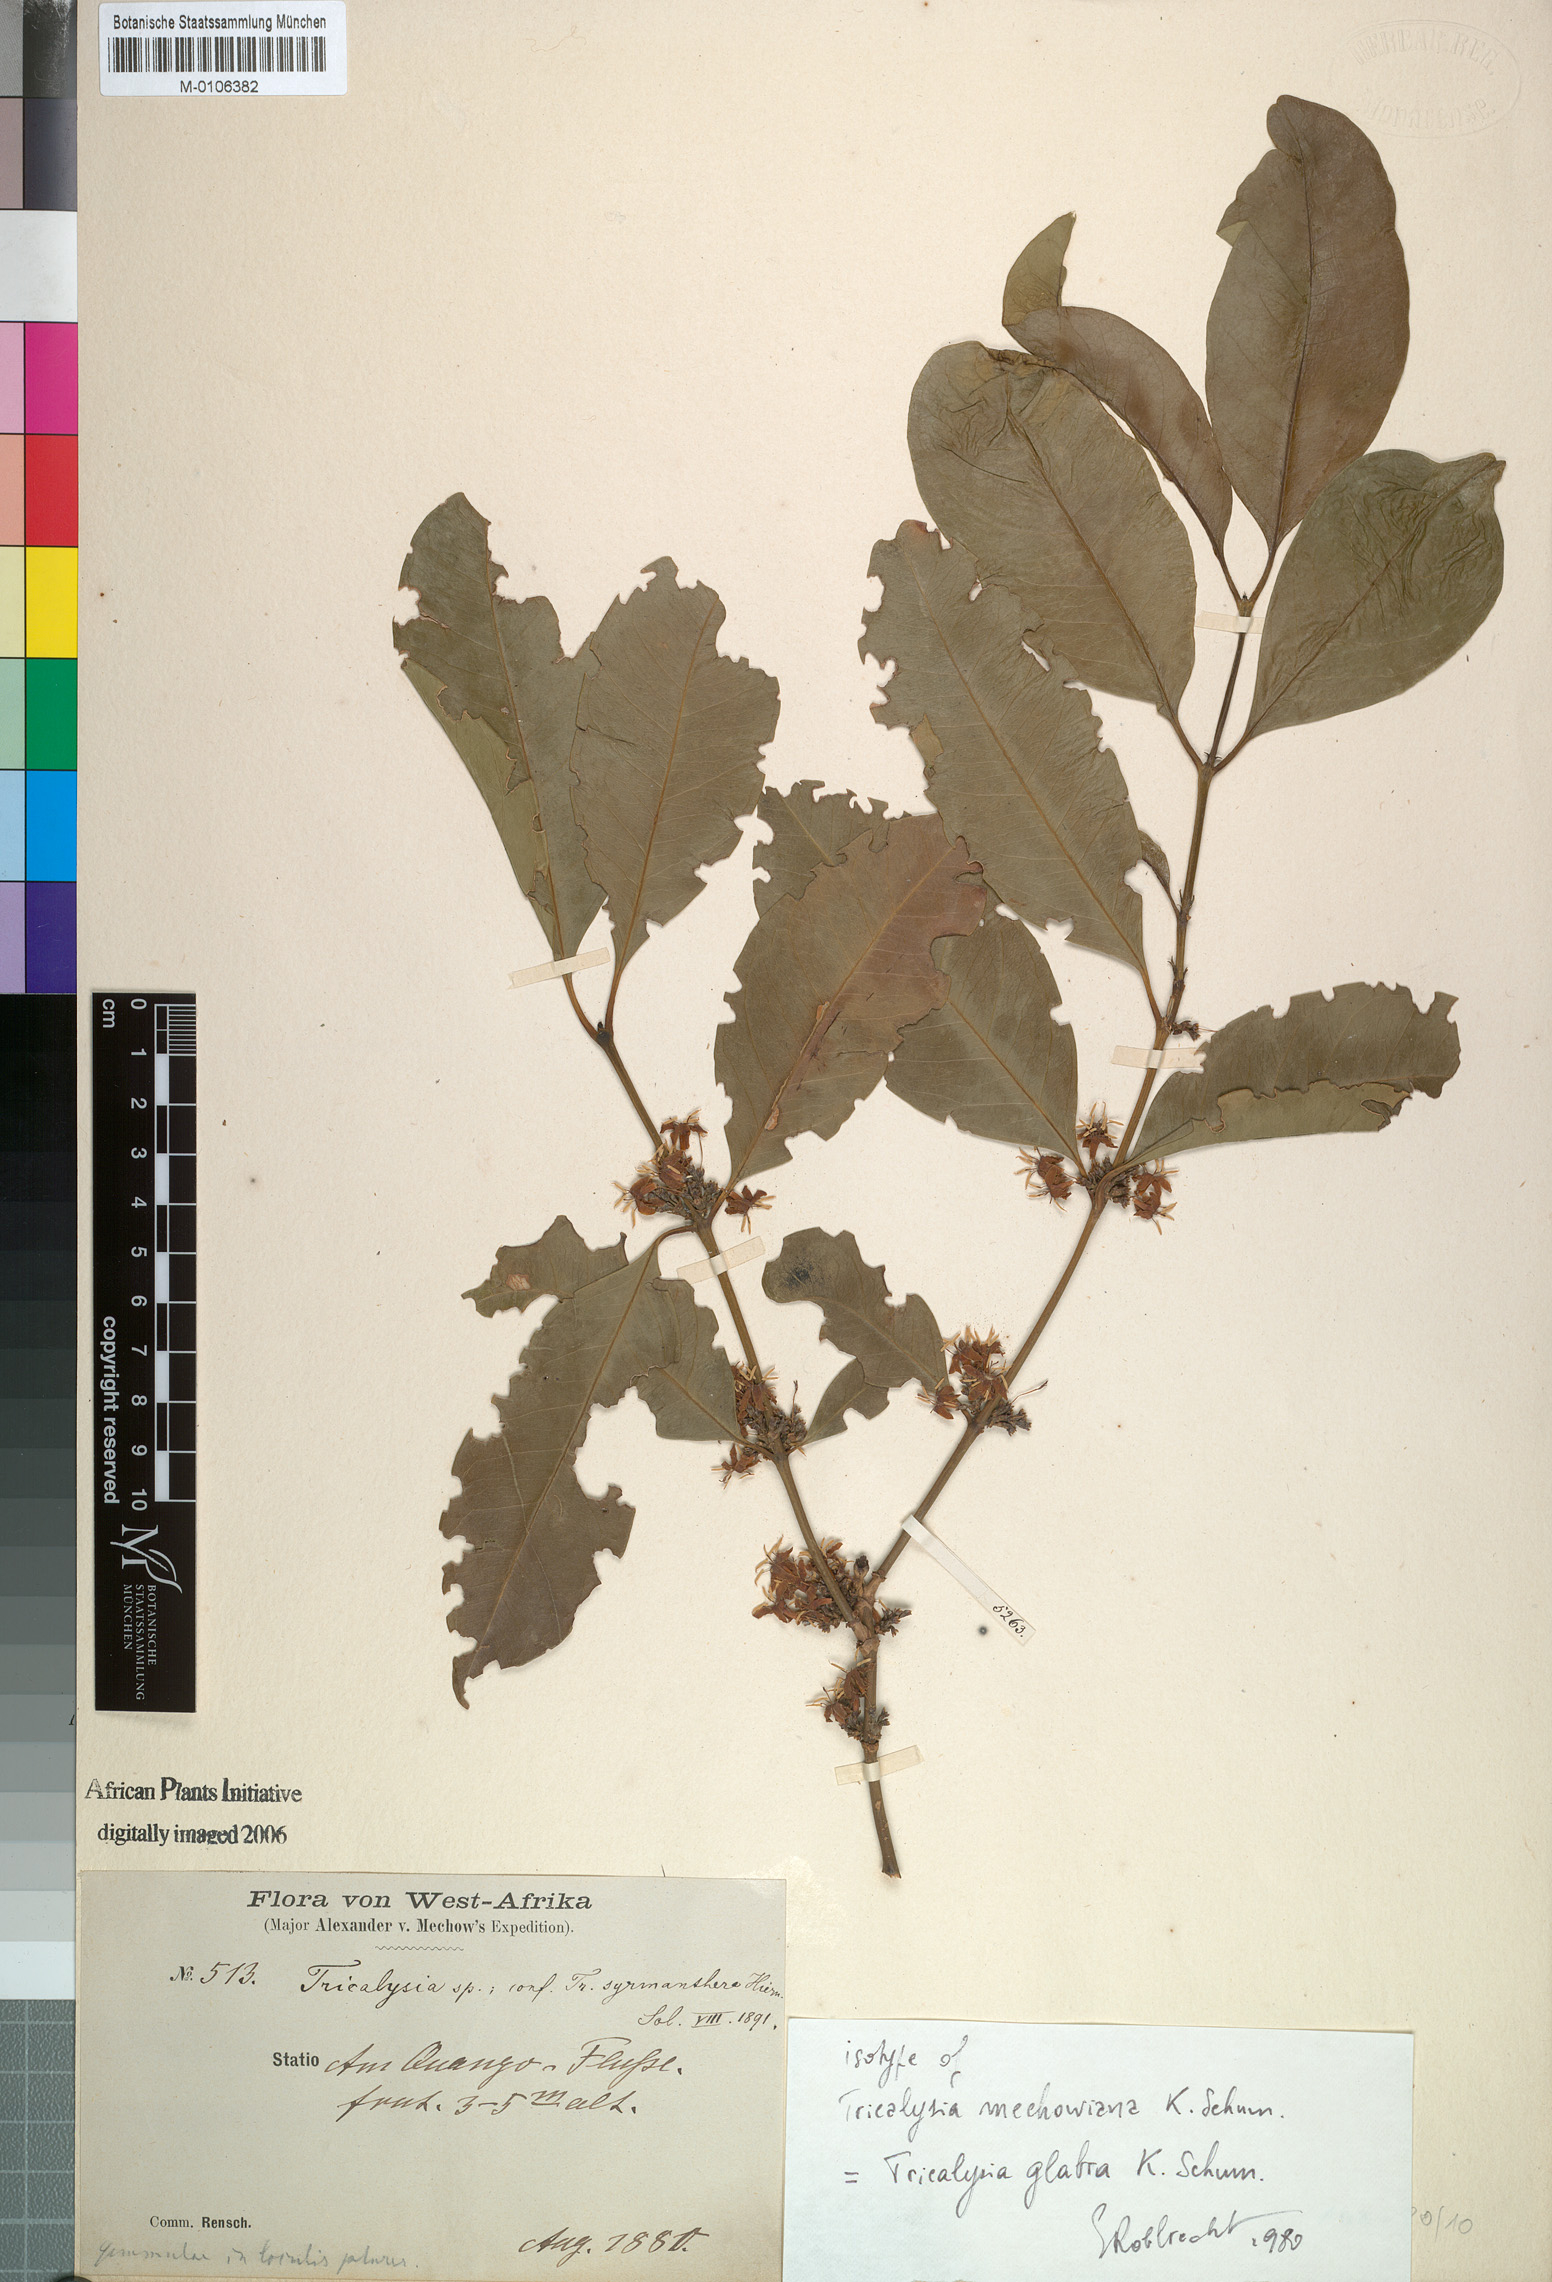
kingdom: Plantae
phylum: Tracheophyta
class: Magnoliopsida
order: Gentianales
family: Rubiaceae
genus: Empogona
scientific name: Empogona glabra
